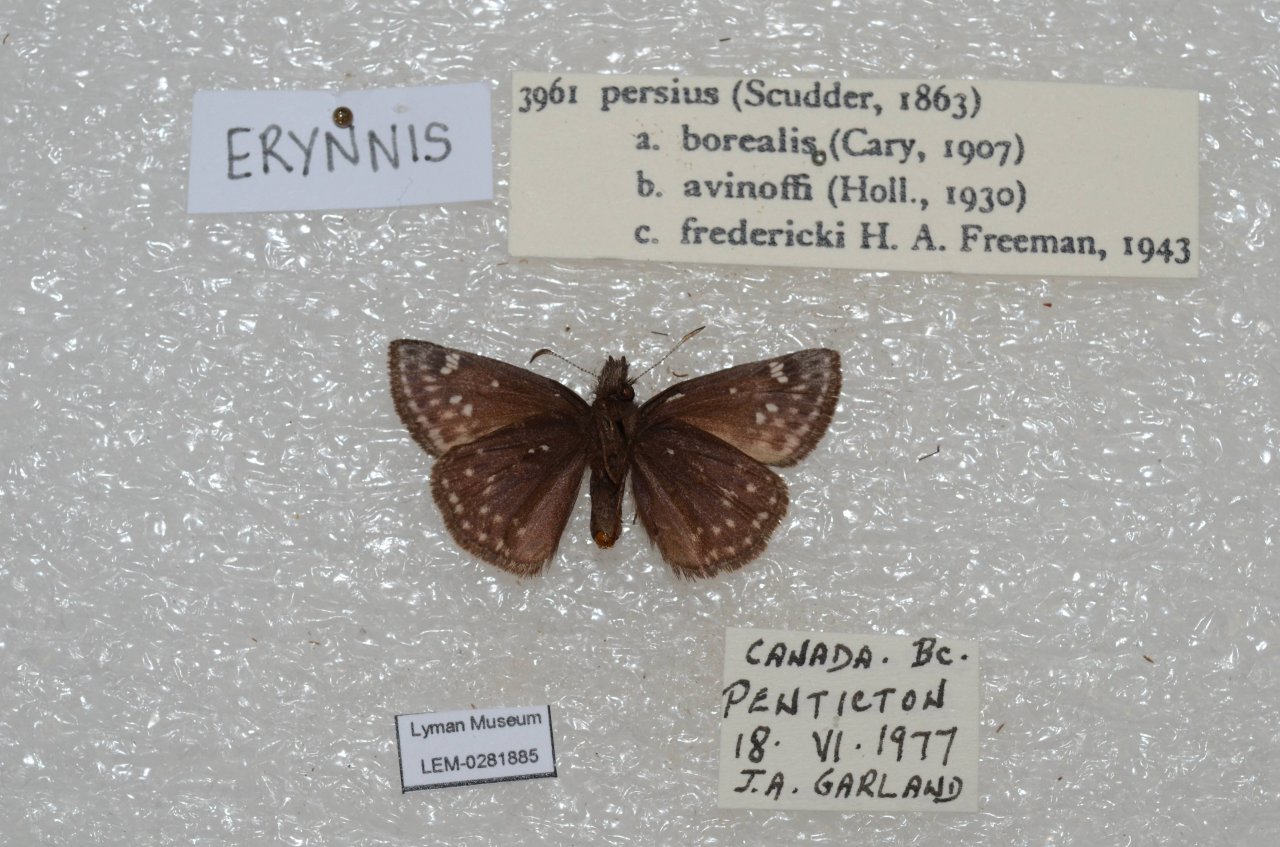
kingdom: Animalia
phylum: Arthropoda
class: Insecta
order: Lepidoptera
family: Hesperiidae
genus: Gesta
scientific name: Gesta
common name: Persius Duskywing
